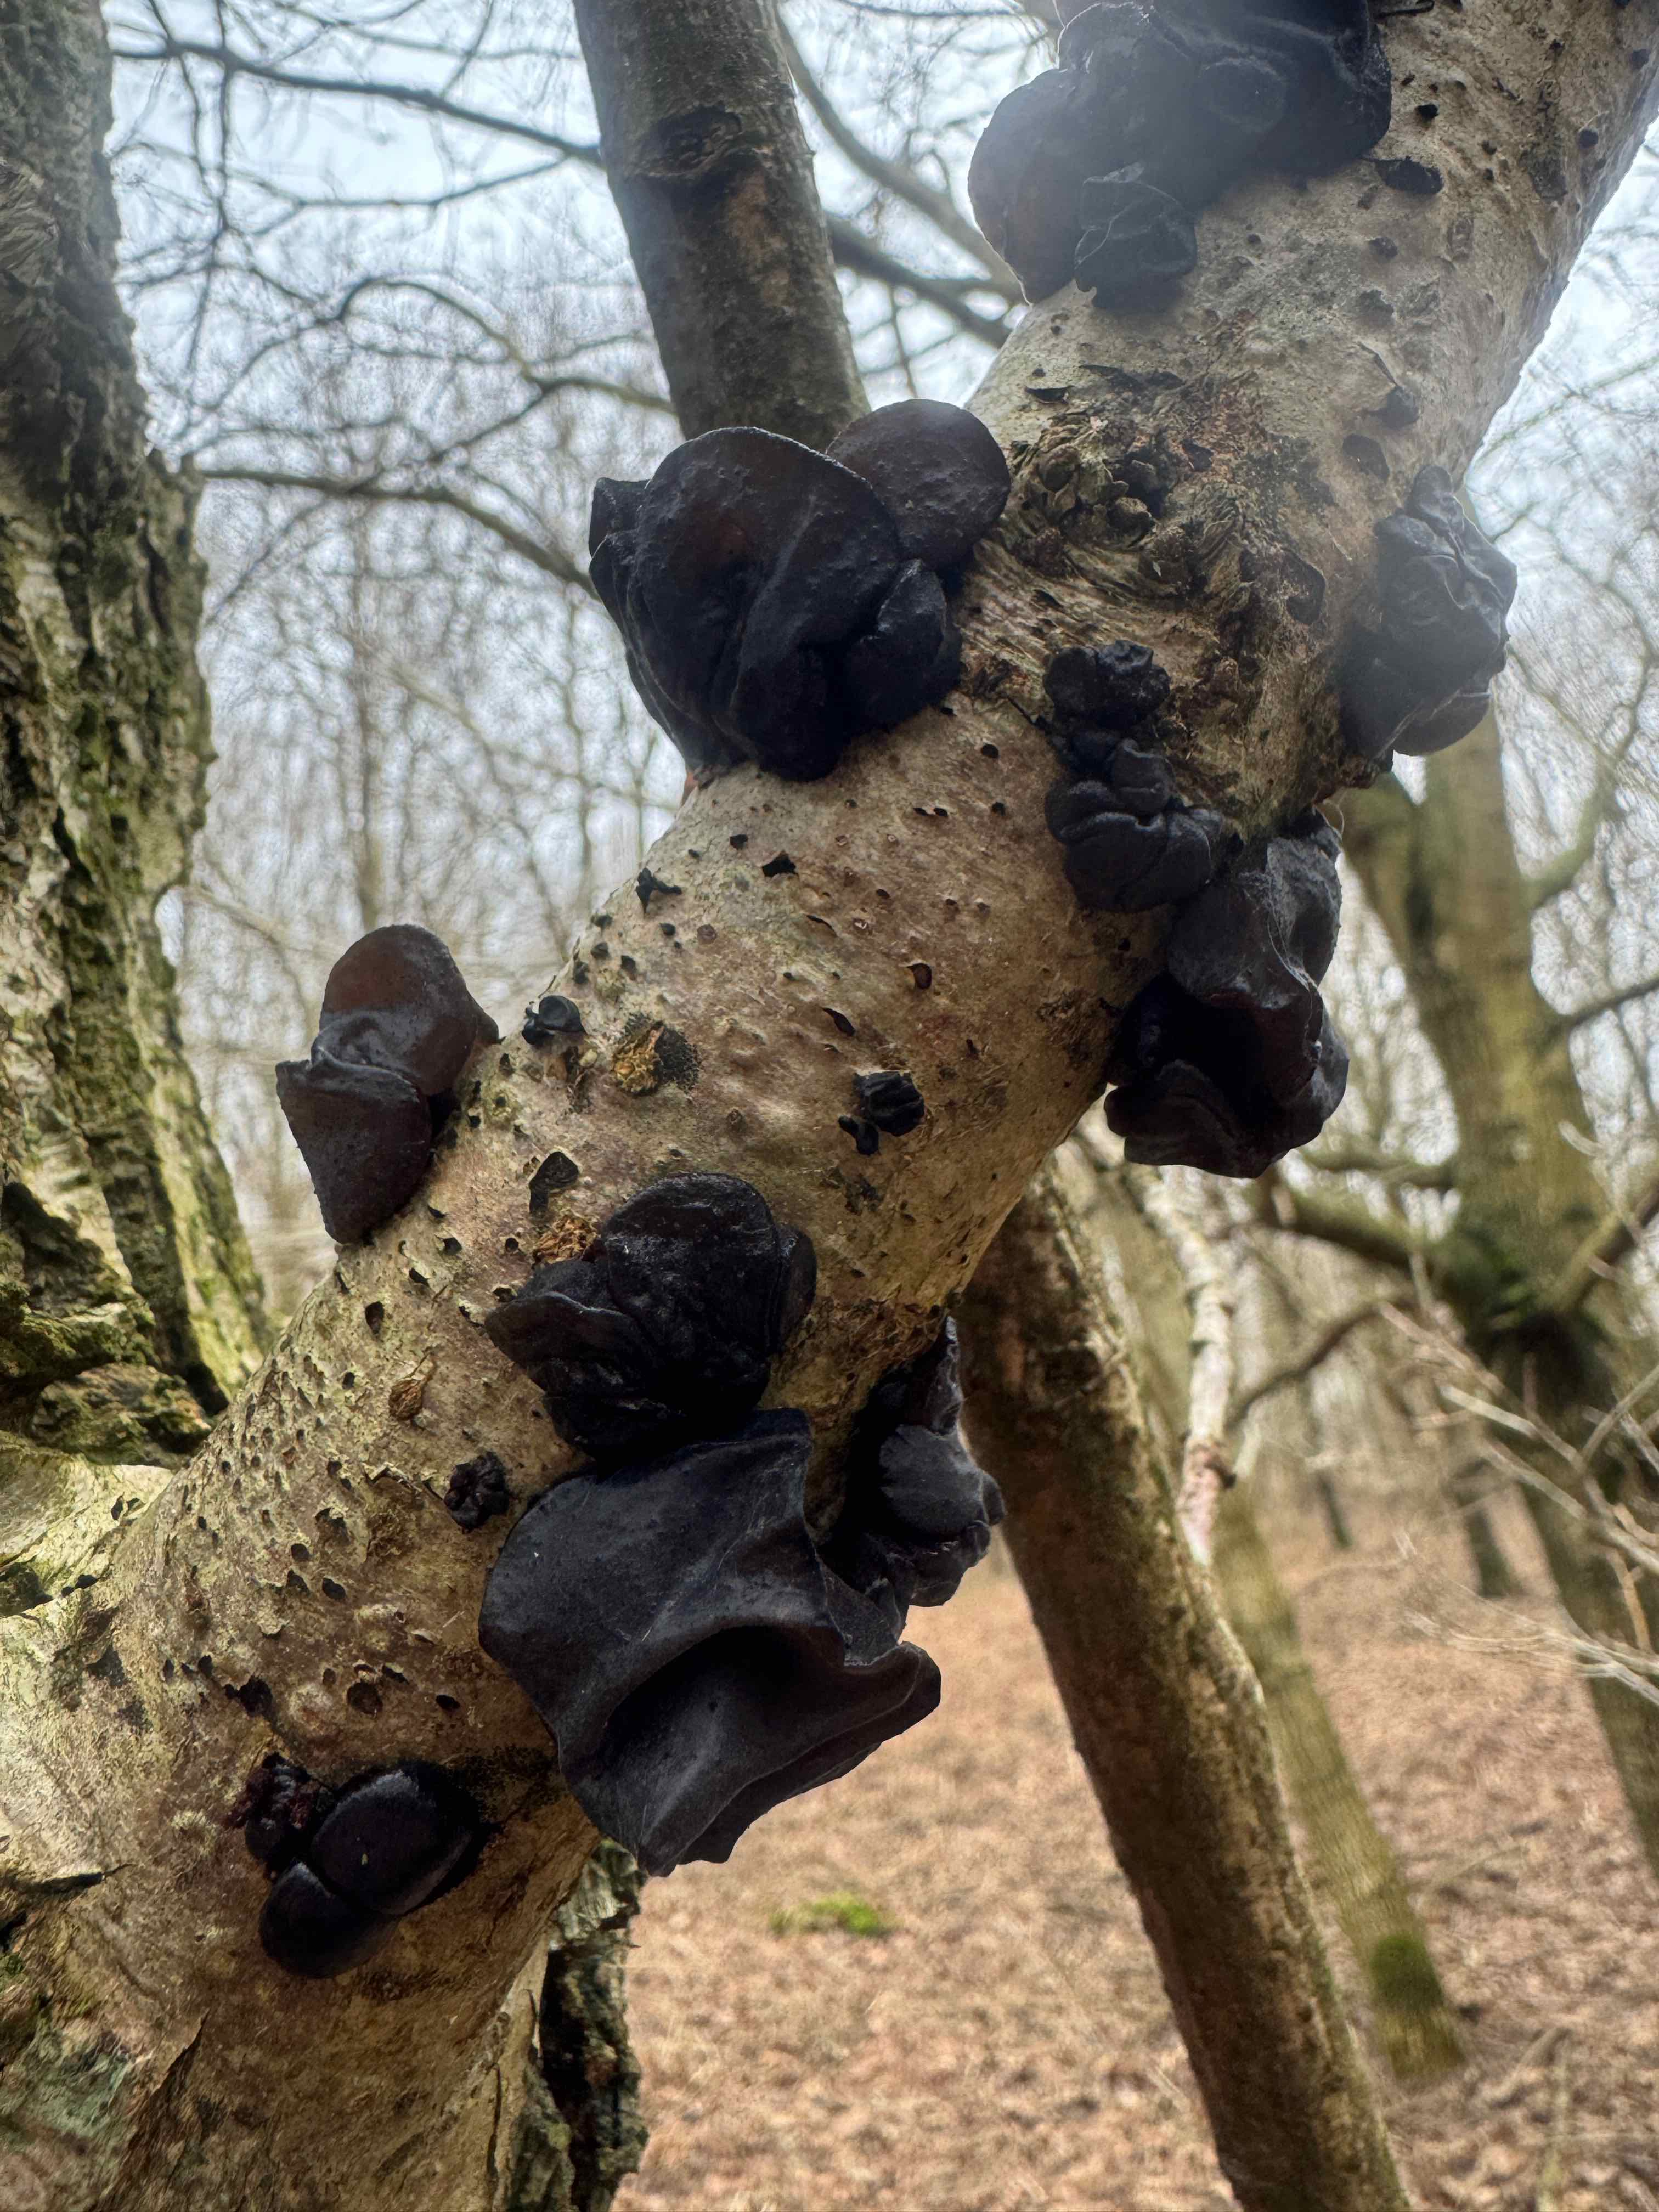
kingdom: Fungi
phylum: Basidiomycota
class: Agaricomycetes
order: Auriculariales
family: Auriculariaceae
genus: Exidia
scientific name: Exidia glandulosa
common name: ege-bævretop
